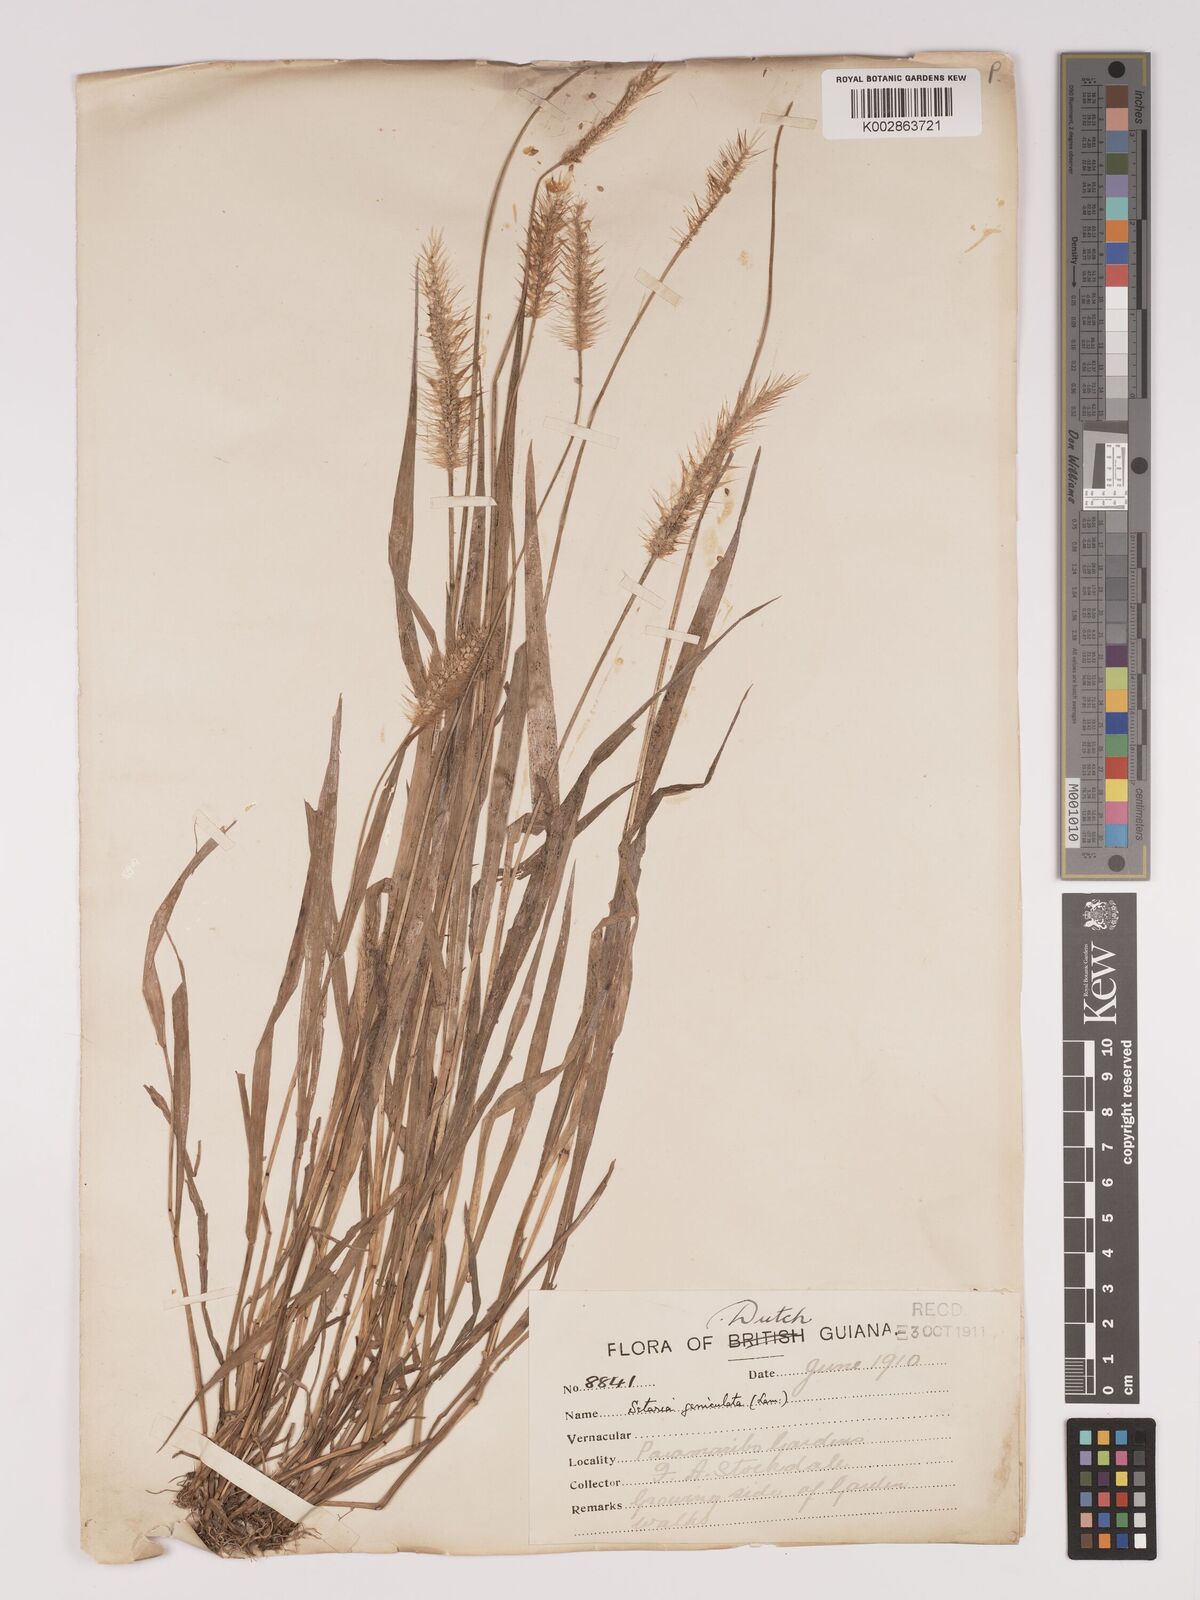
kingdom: Plantae
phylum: Tracheophyta
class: Liliopsida
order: Poales
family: Poaceae
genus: Setaria
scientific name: Setaria parviflora
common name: Knotroot bristle-grass
